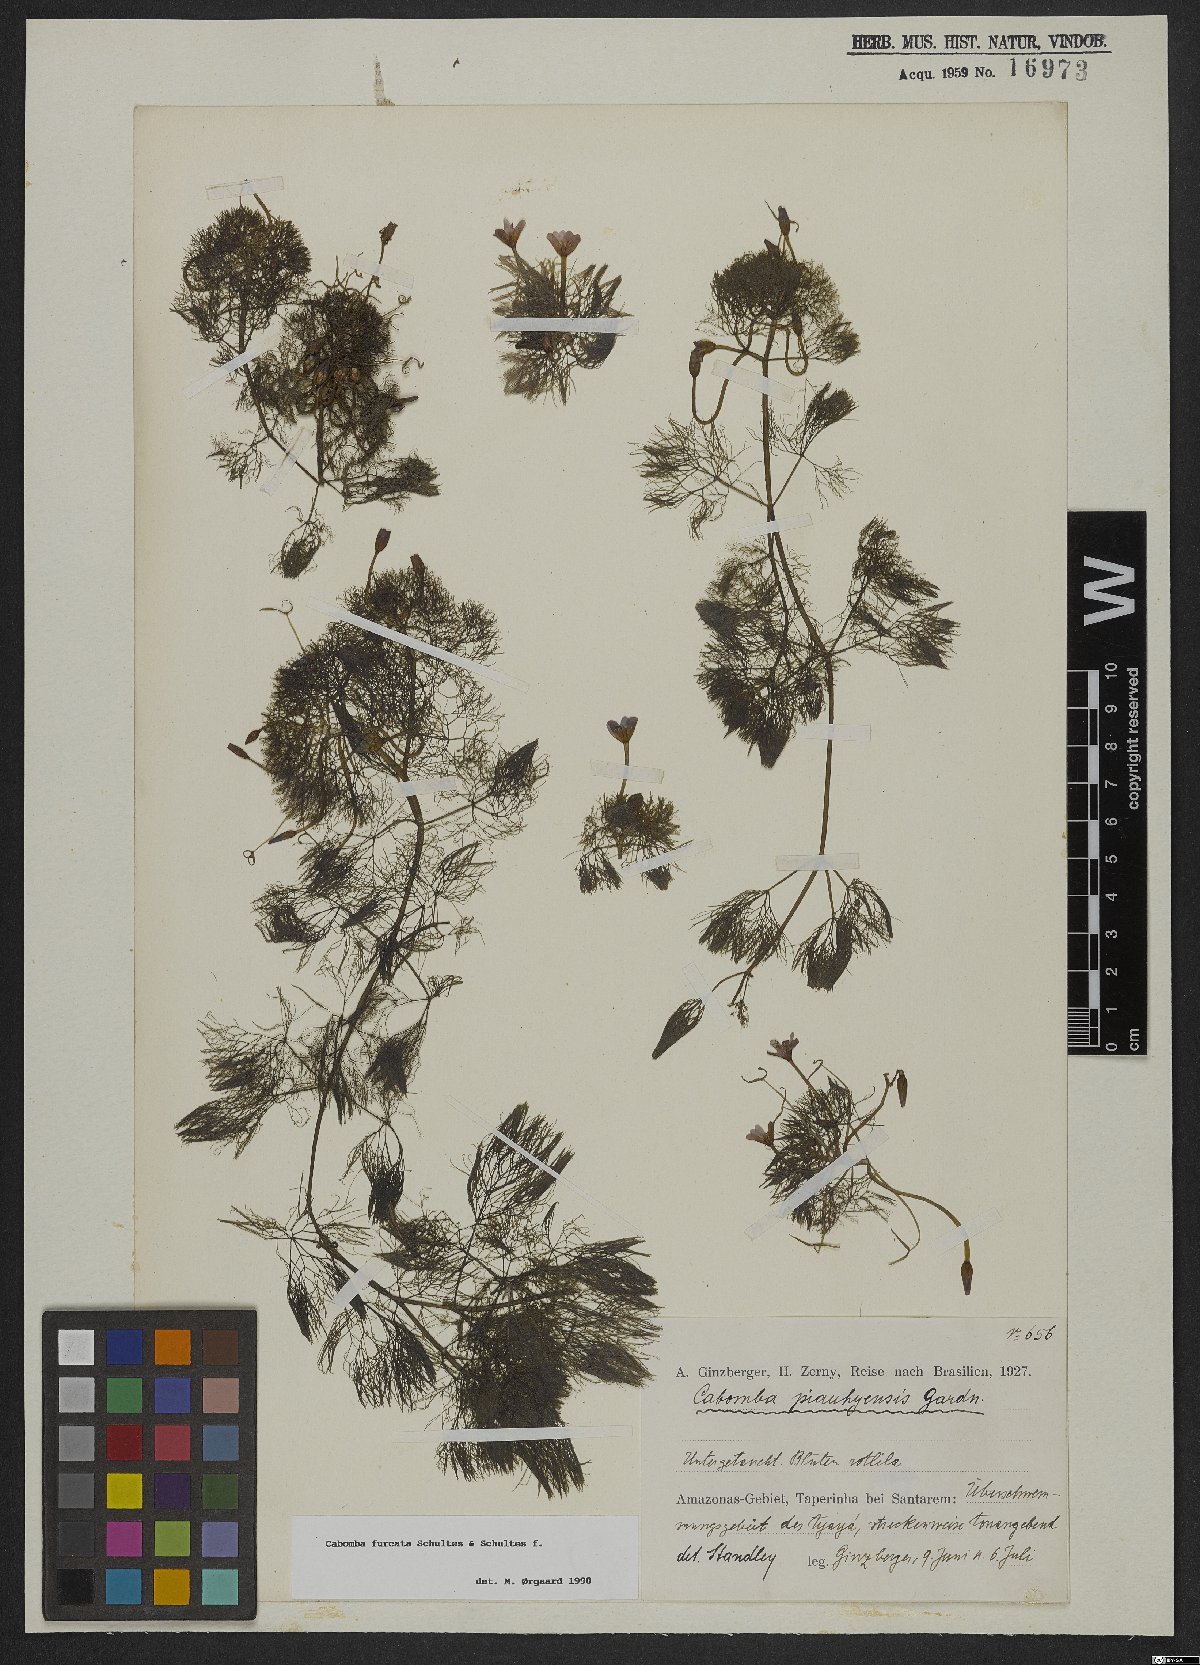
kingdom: Plantae
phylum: Tracheophyta
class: Magnoliopsida
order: Nymphaeales
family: Cabombaceae
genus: Cabomba
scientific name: Cabomba furcata
